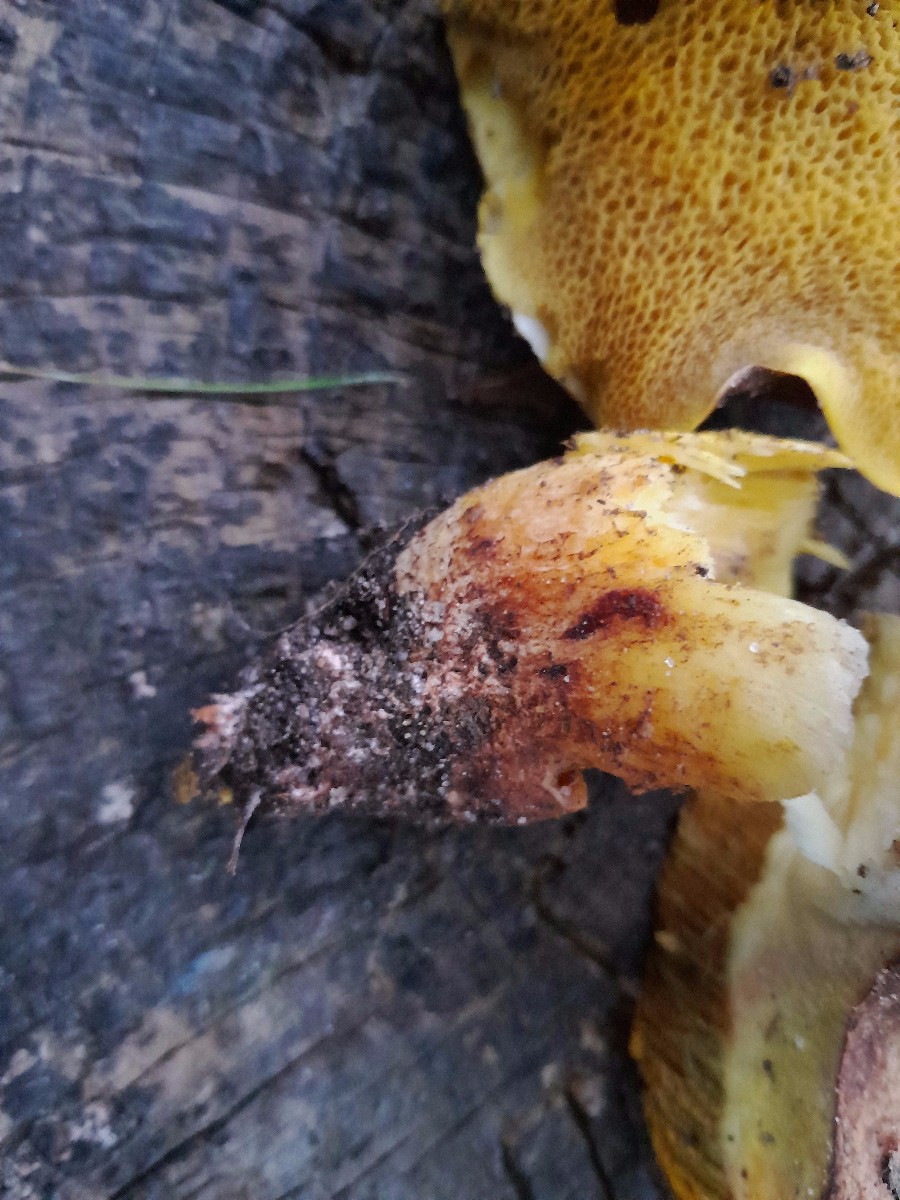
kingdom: Fungi
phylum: Basidiomycota
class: Agaricomycetes
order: Boletales
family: Suillaceae
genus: Suillus
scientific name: Suillus collinitus
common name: rosafodet slimrørhat
